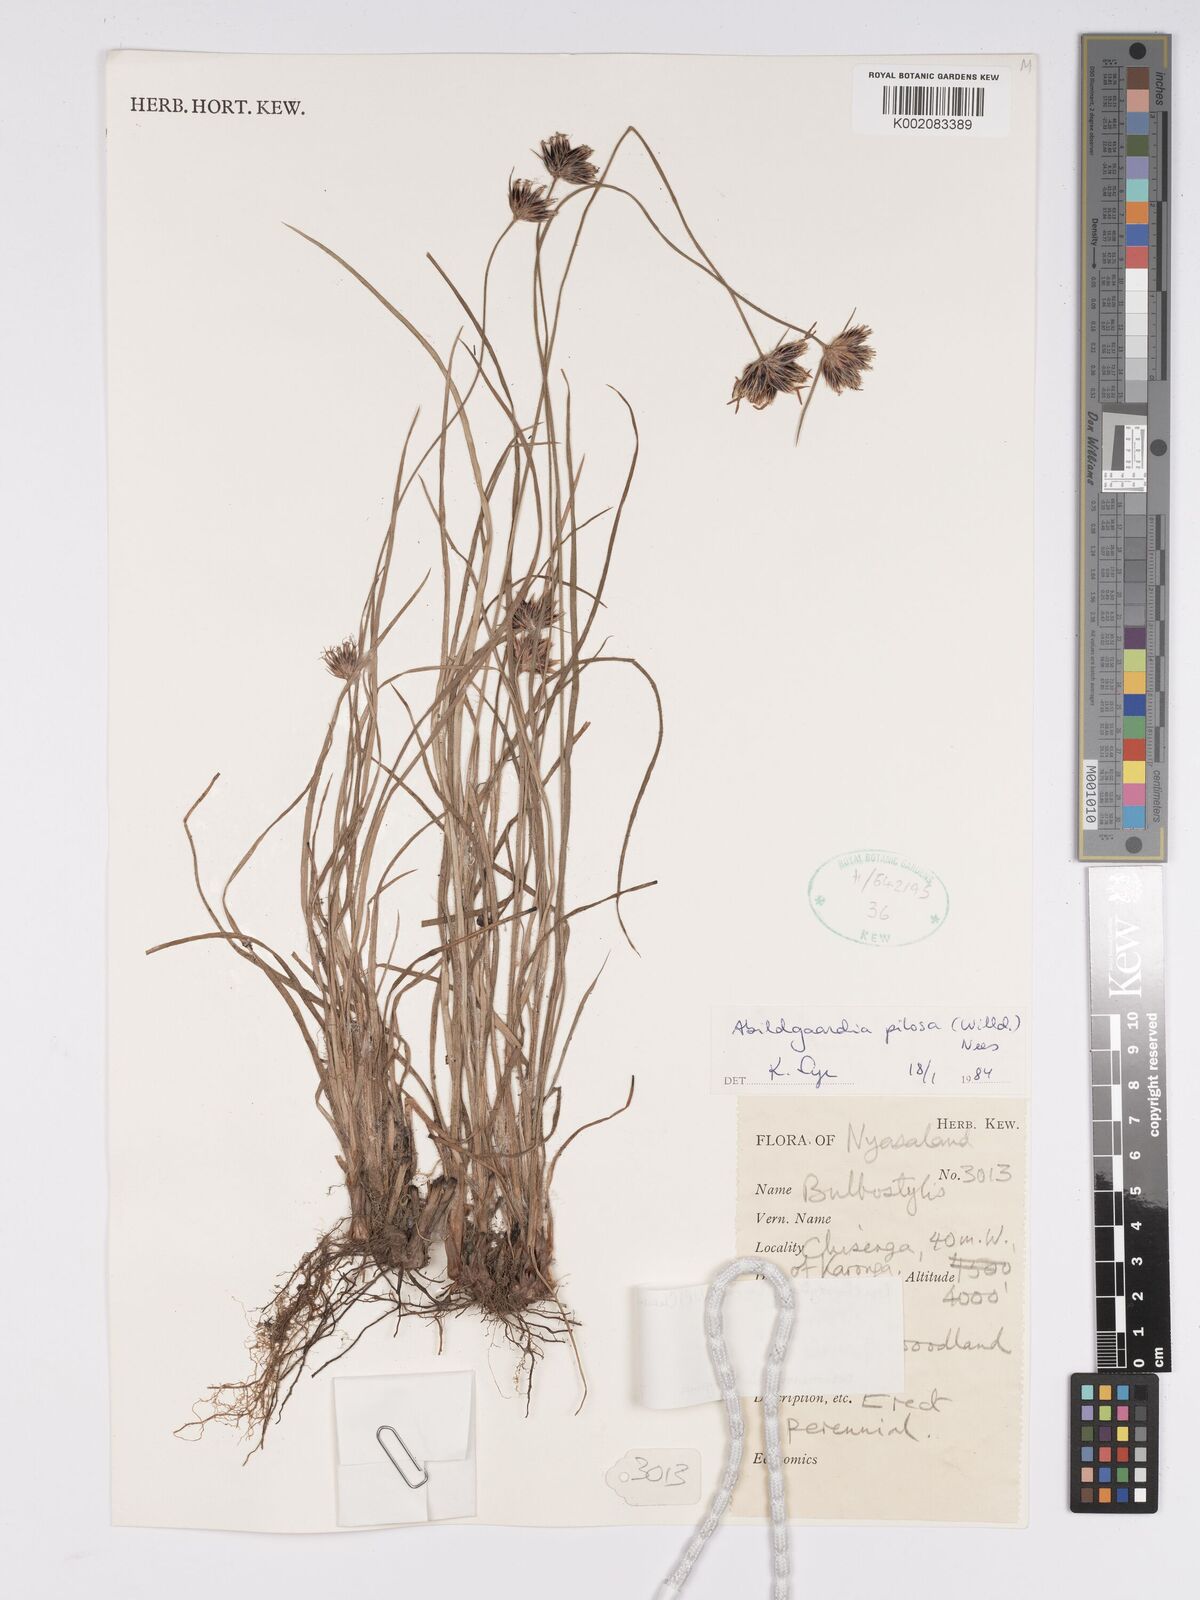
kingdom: Plantae
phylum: Tracheophyta
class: Liliopsida
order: Poales
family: Cyperaceae
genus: Bulbostylis
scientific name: Bulbostylis pilosa
